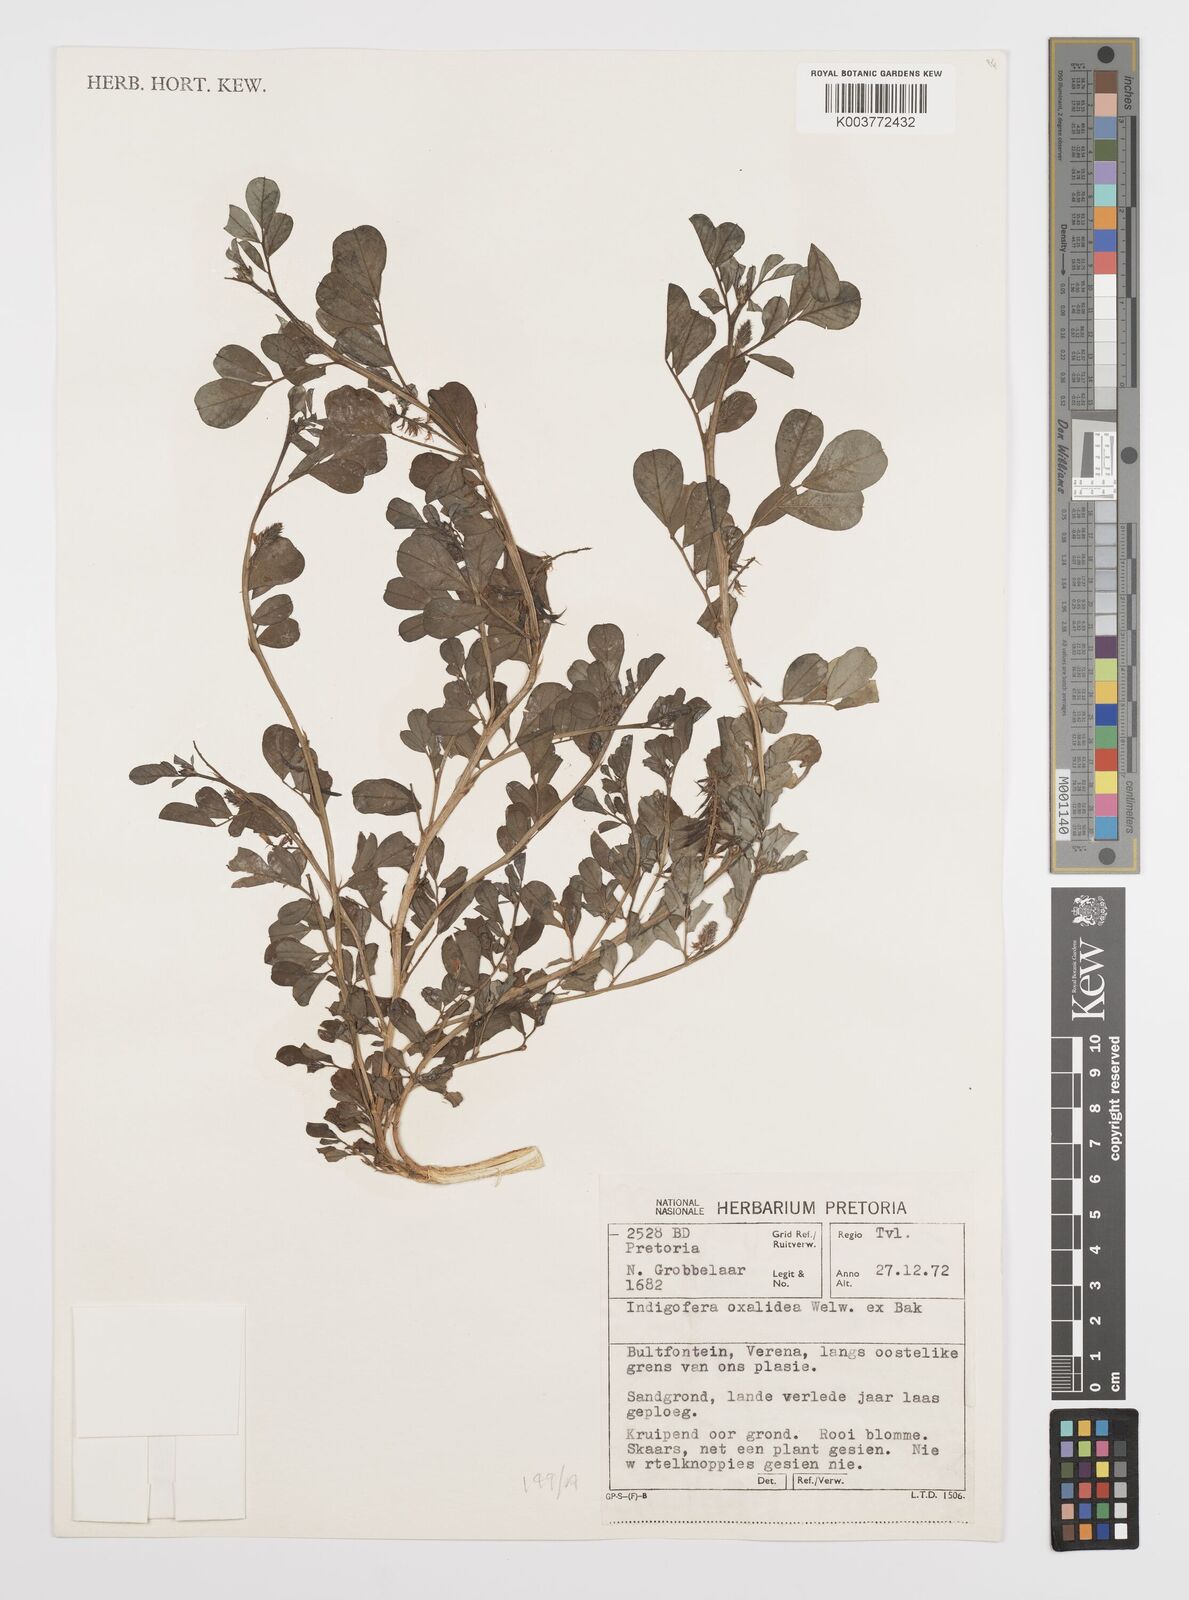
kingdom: Plantae
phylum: Tracheophyta
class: Magnoliopsida
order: Fabales
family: Fabaceae
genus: Indigofera
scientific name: Indigofera oxalidea
